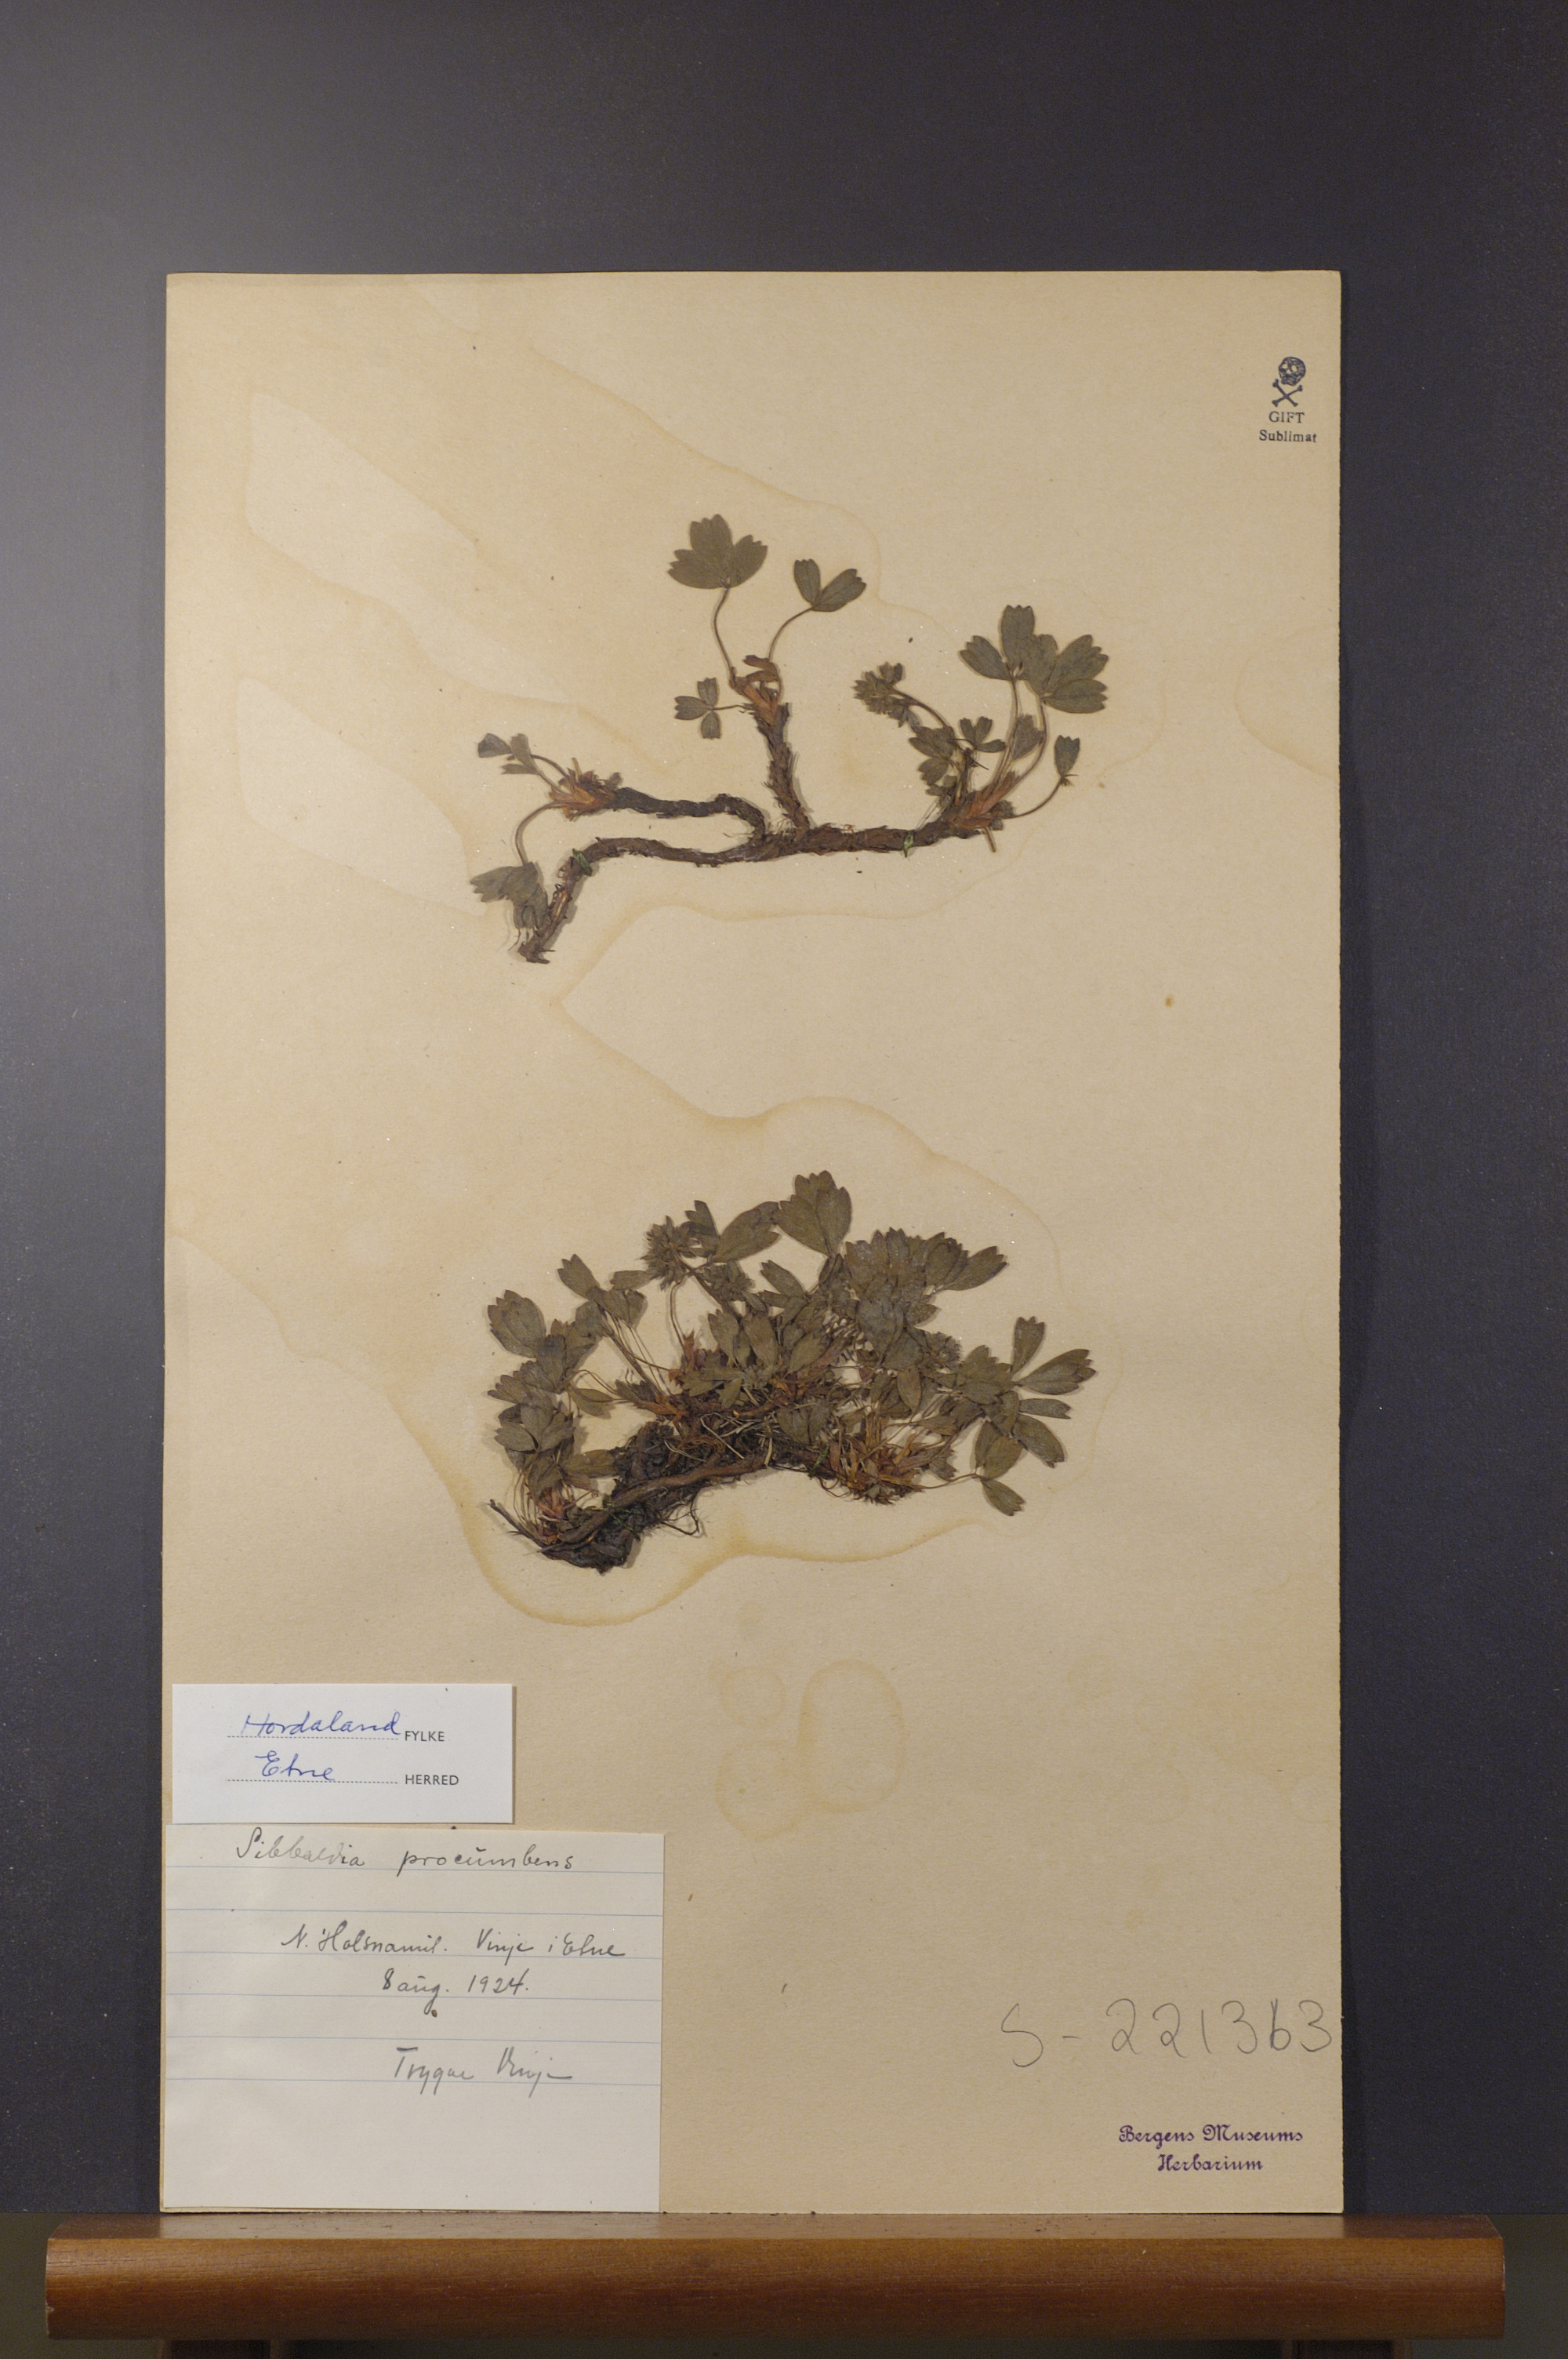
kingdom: Plantae
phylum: Tracheophyta
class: Magnoliopsida
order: Rosales
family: Rosaceae
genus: Sibbaldia
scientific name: Sibbaldia procumbens
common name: Creeping sibbaldia
